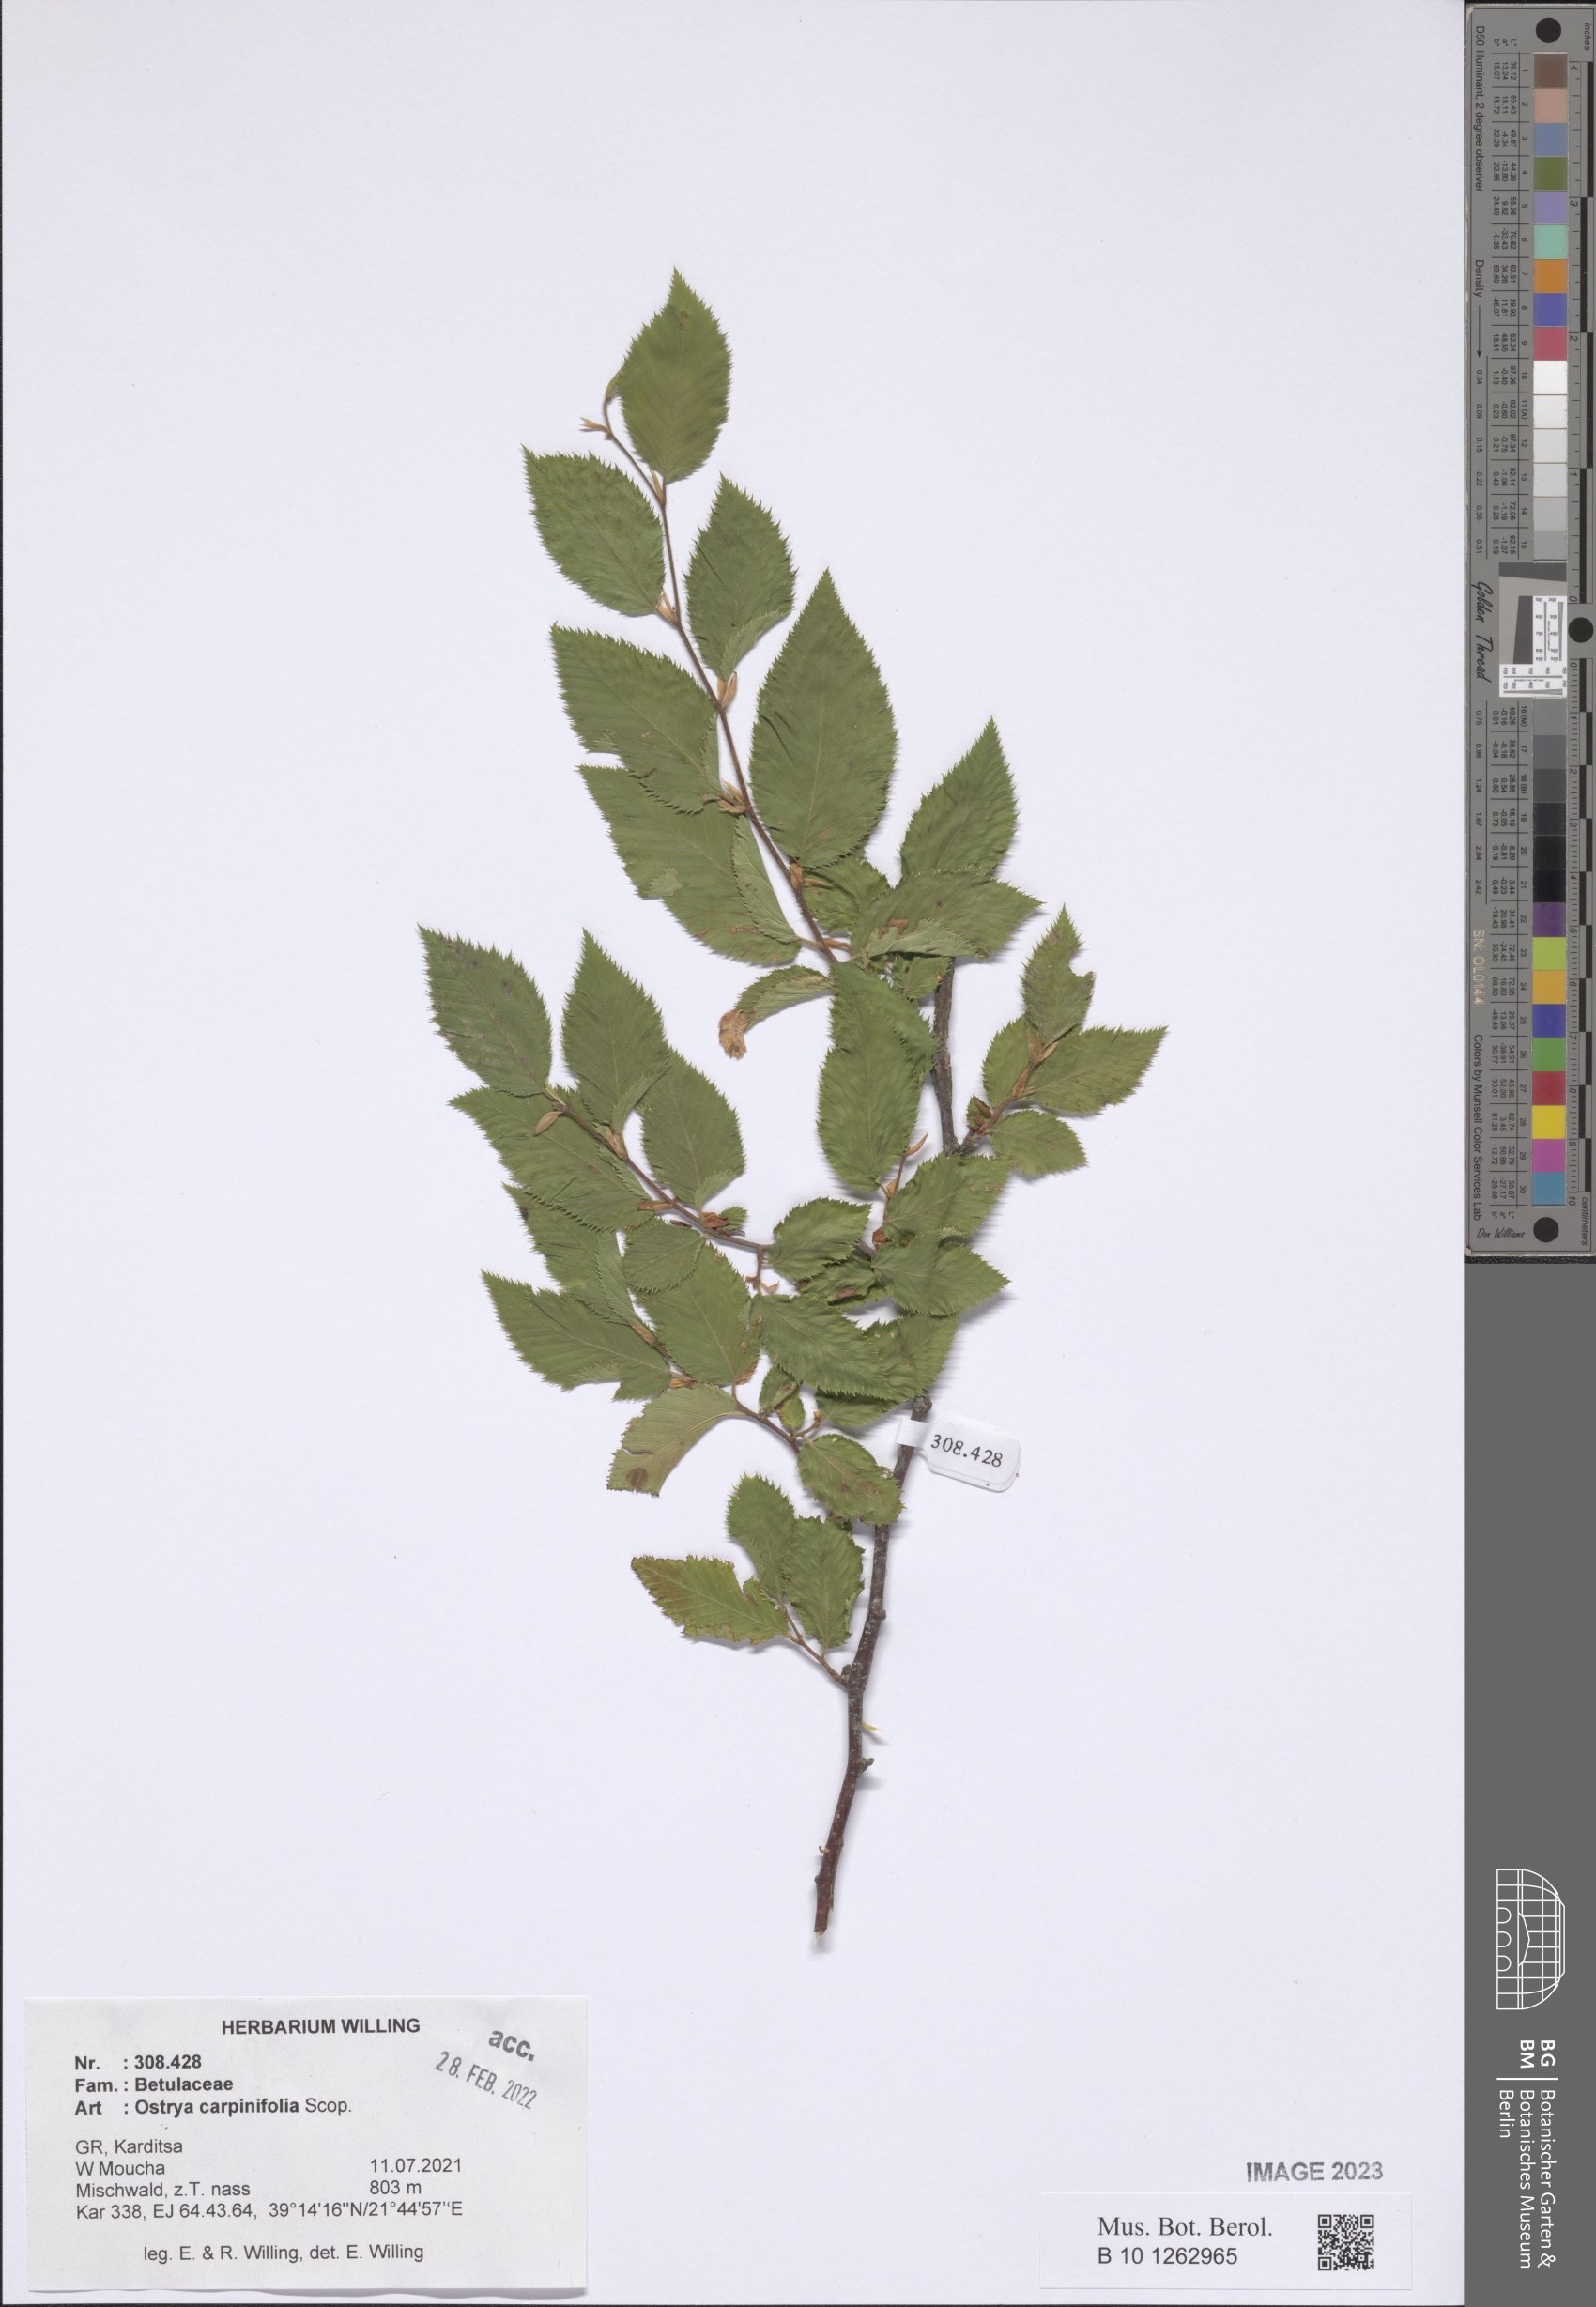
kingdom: Plantae
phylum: Tracheophyta
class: Magnoliopsida
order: Fagales
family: Betulaceae
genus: Ostrya
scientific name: Ostrya carpinifolia
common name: European hop-hornbeam
